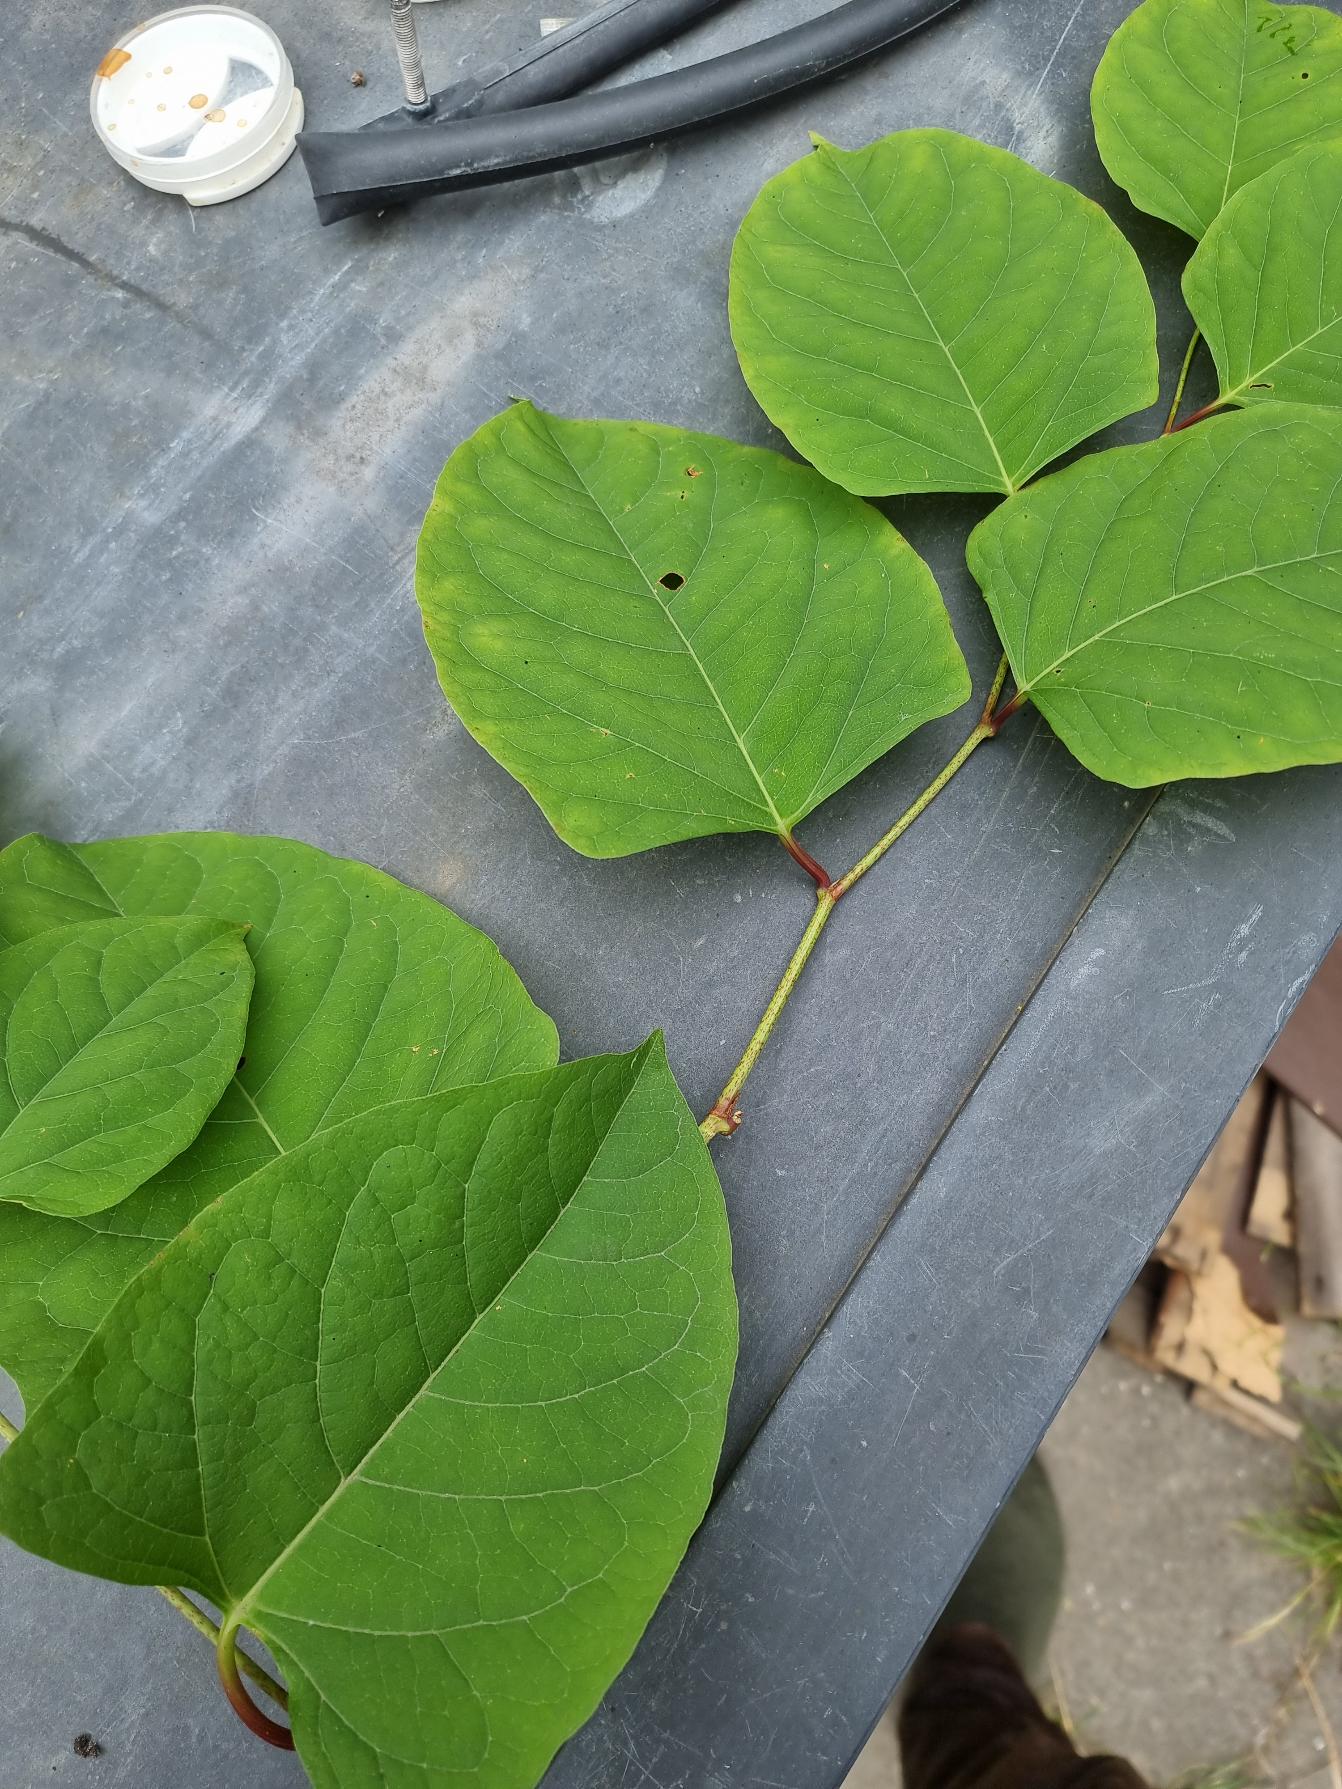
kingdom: Plantae
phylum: Tracheophyta
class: Magnoliopsida
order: Caryophyllales
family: Polygonaceae
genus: Reynoutria
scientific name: Reynoutria japonica
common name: Japan-pileurt
